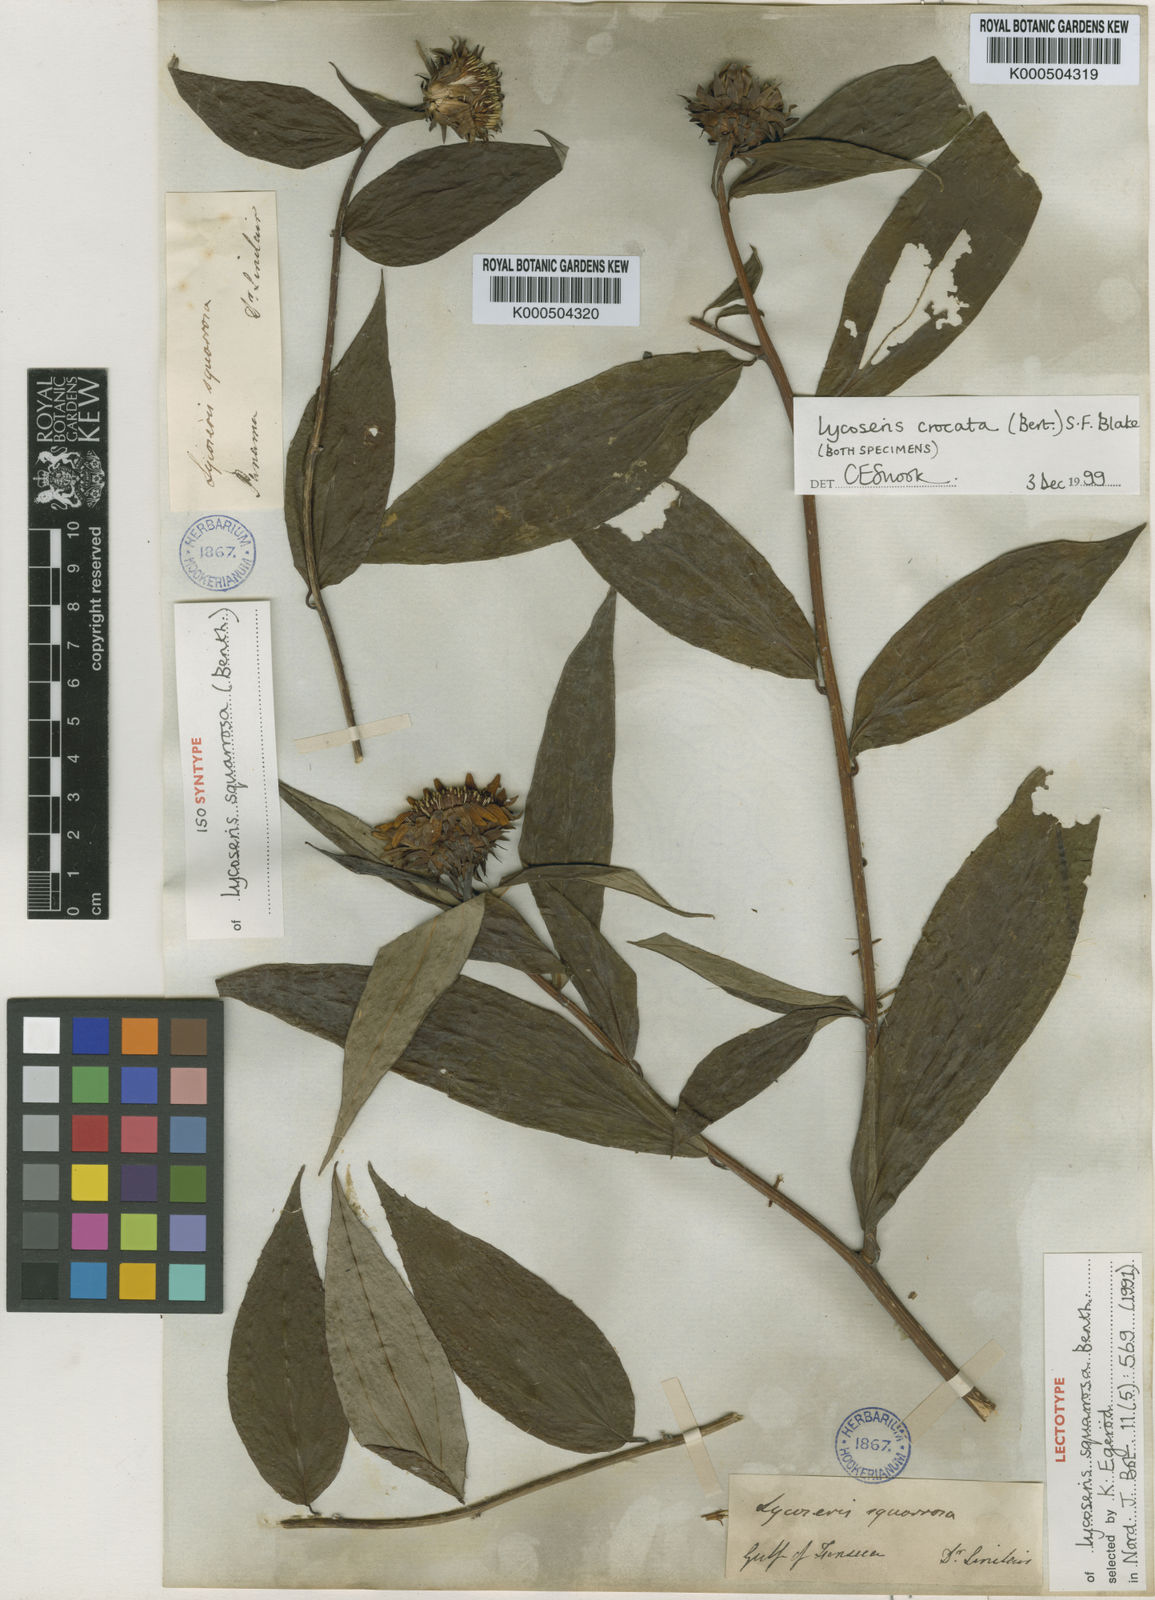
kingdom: Plantae
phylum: Tracheophyta
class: Magnoliopsida
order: Asterales
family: Asteraceae
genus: Lycoseris
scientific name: Lycoseris crocata
